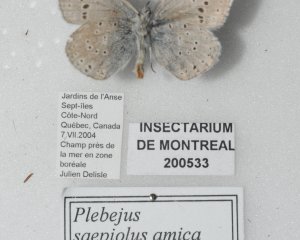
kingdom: Animalia
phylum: Arthropoda
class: Insecta
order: Lepidoptera
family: Lycaenidae
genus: Plebejus
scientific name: Plebejus saepiolus
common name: Greenish Blue
